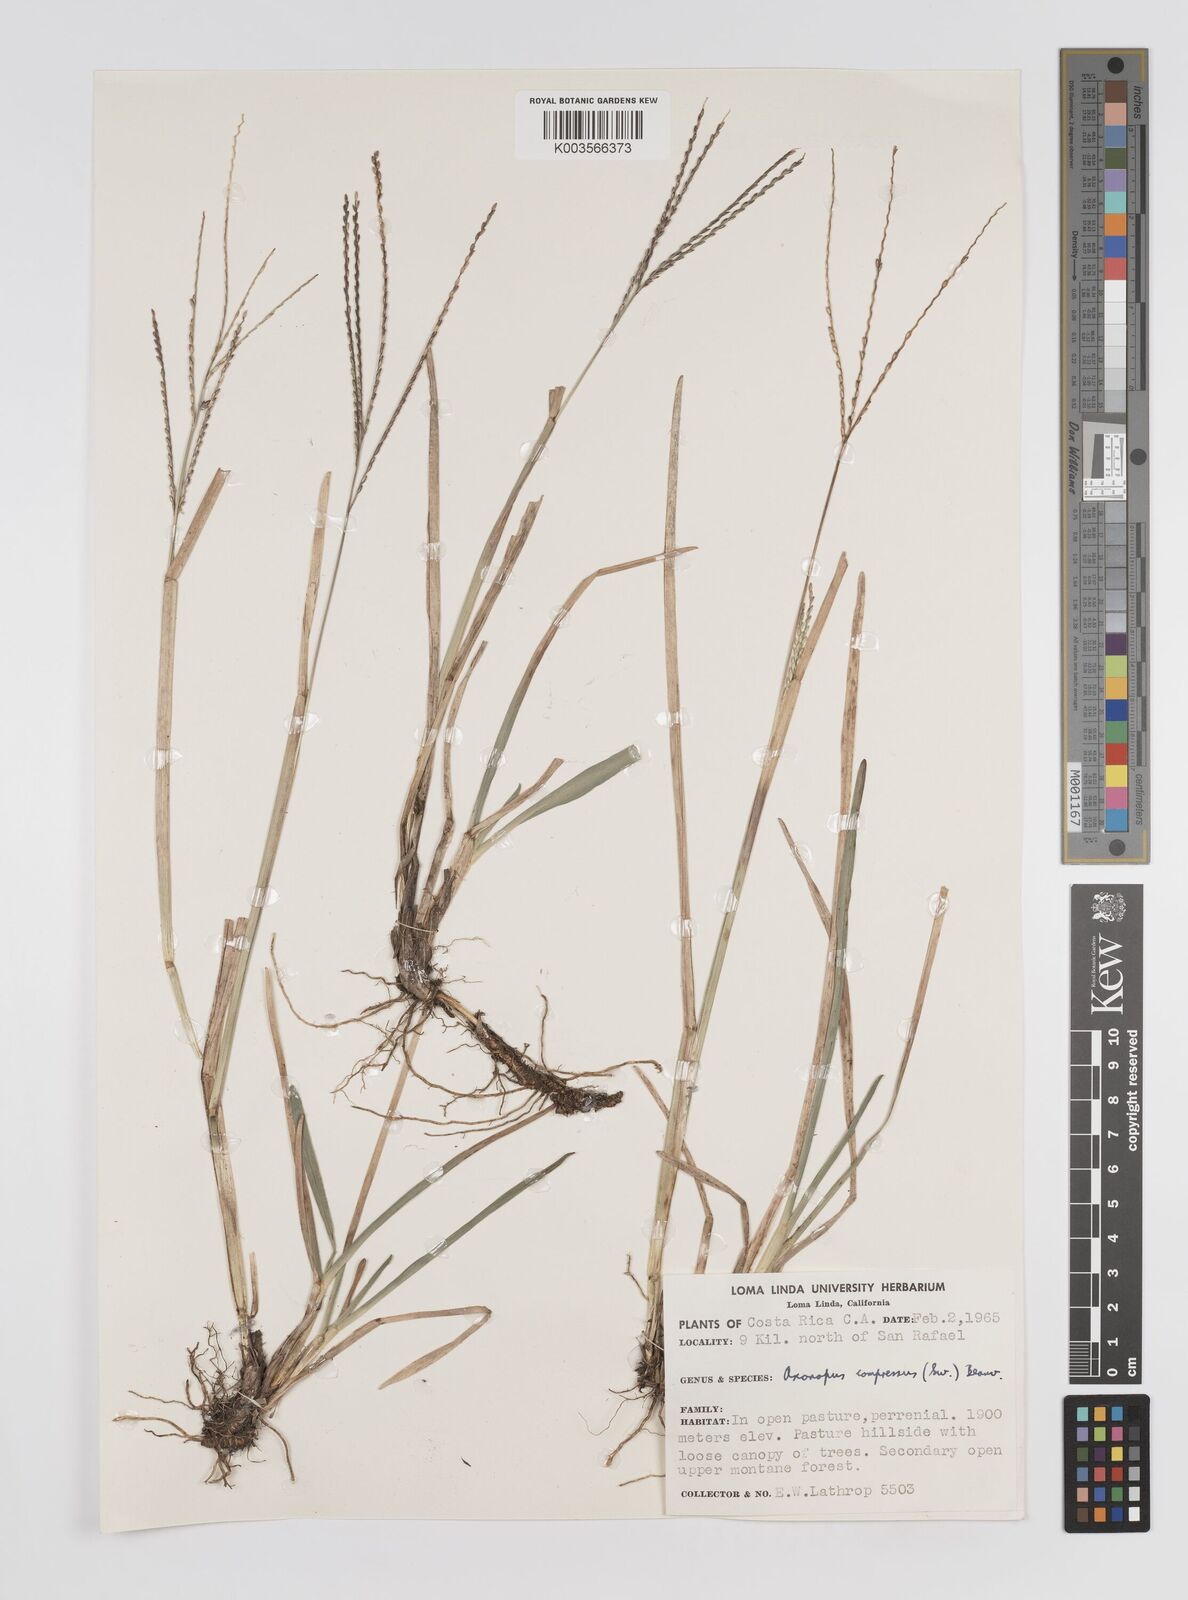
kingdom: Plantae
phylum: Tracheophyta
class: Liliopsida
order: Poales
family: Poaceae
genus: Axonopus
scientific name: Axonopus compressus
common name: American carpet grass
